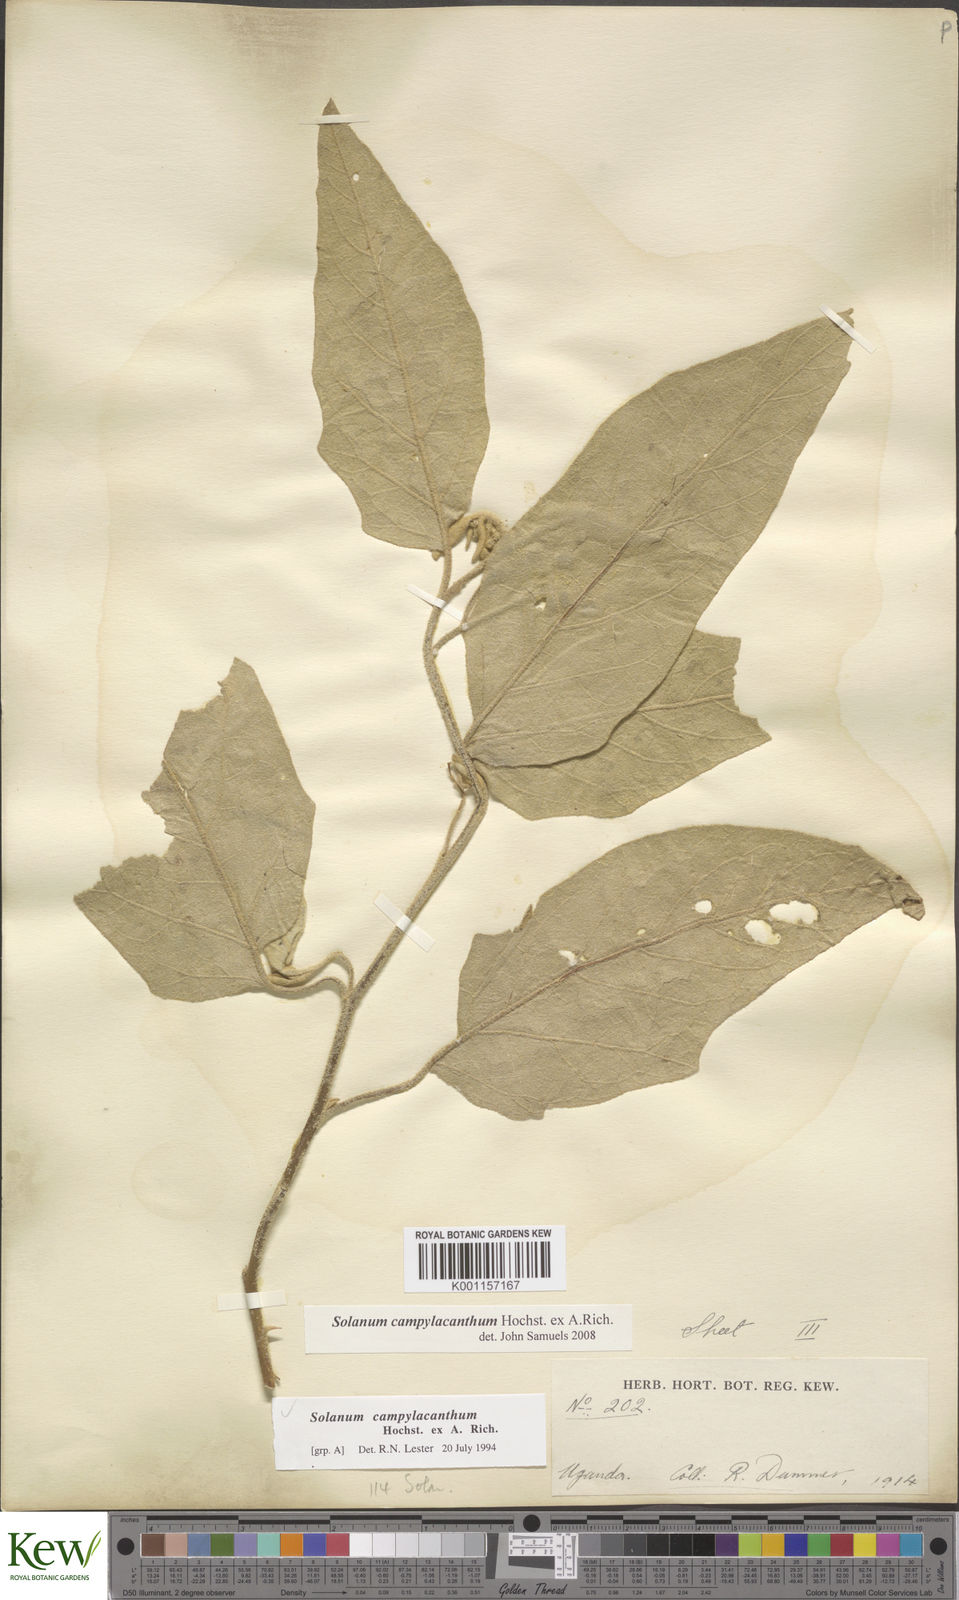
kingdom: Plantae
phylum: Tracheophyta
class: Magnoliopsida
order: Solanales
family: Solanaceae
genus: Solanum
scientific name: Solanum campylacanthum
